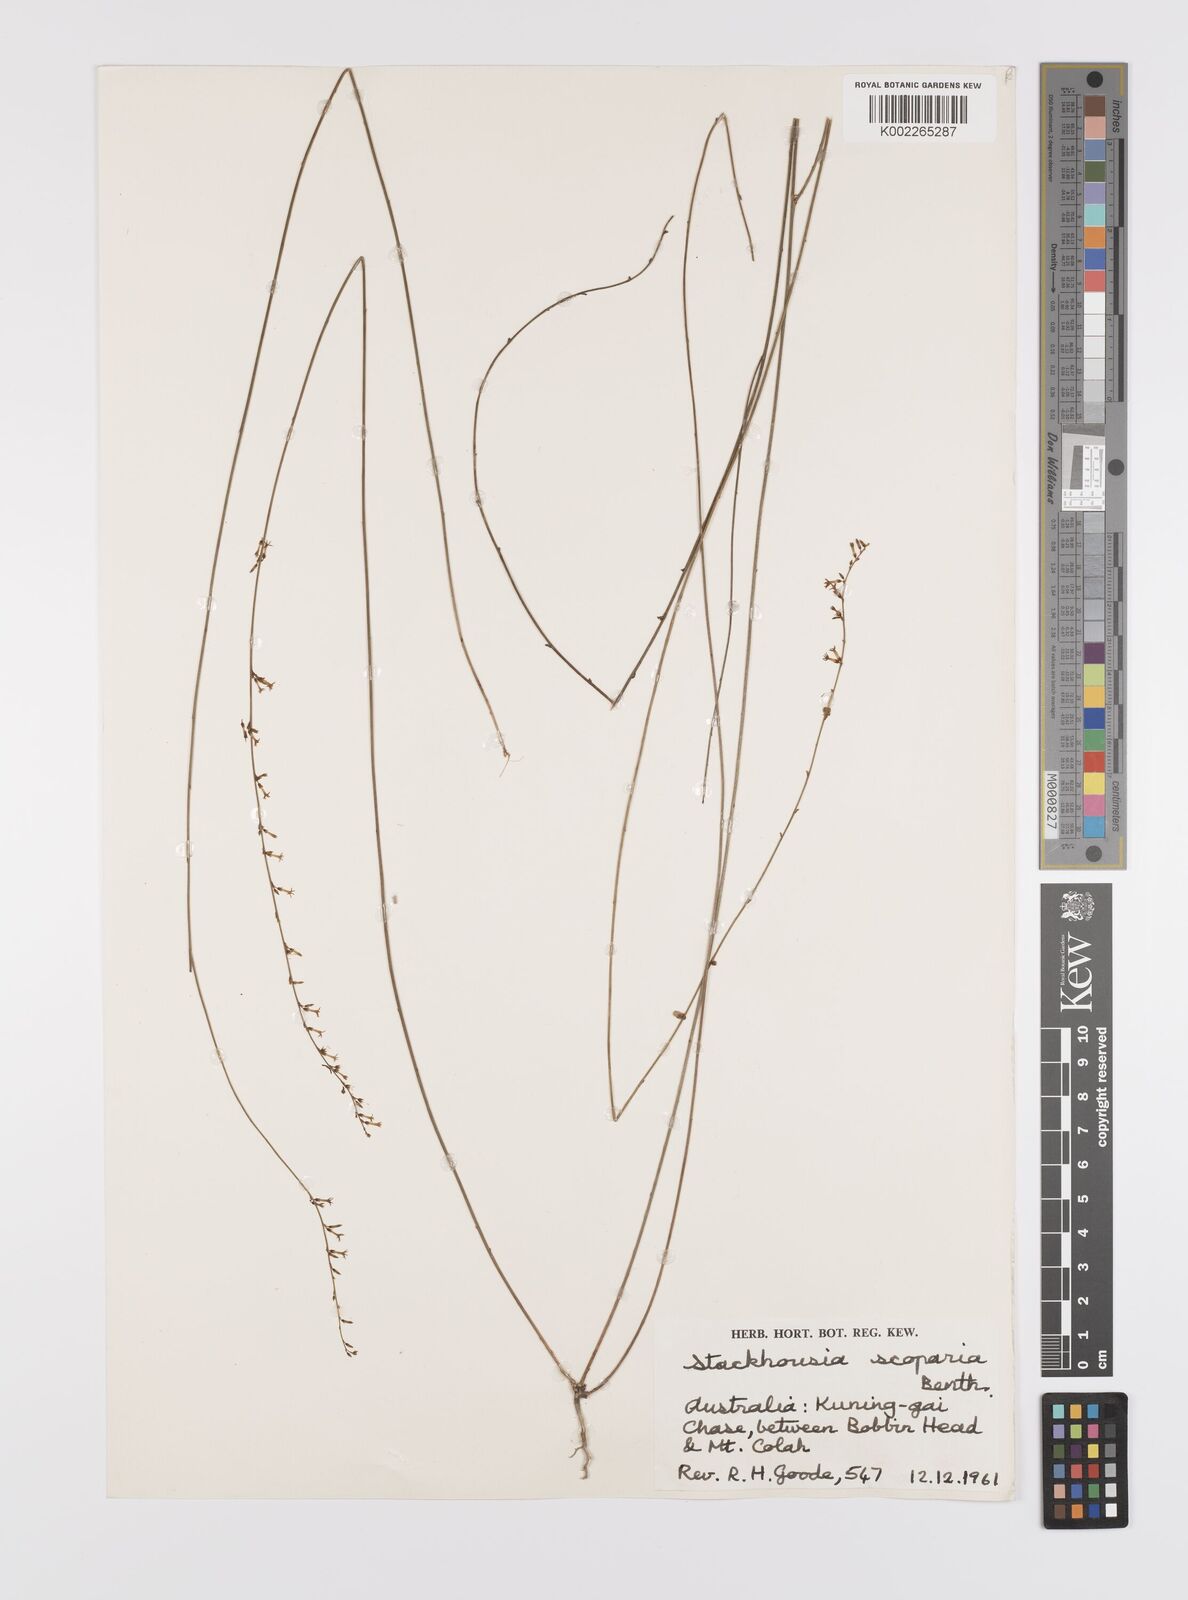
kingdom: Plantae
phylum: Tracheophyta
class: Magnoliopsida
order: Celastrales
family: Celastraceae
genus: Stackhousia
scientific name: Stackhousia scoparia
